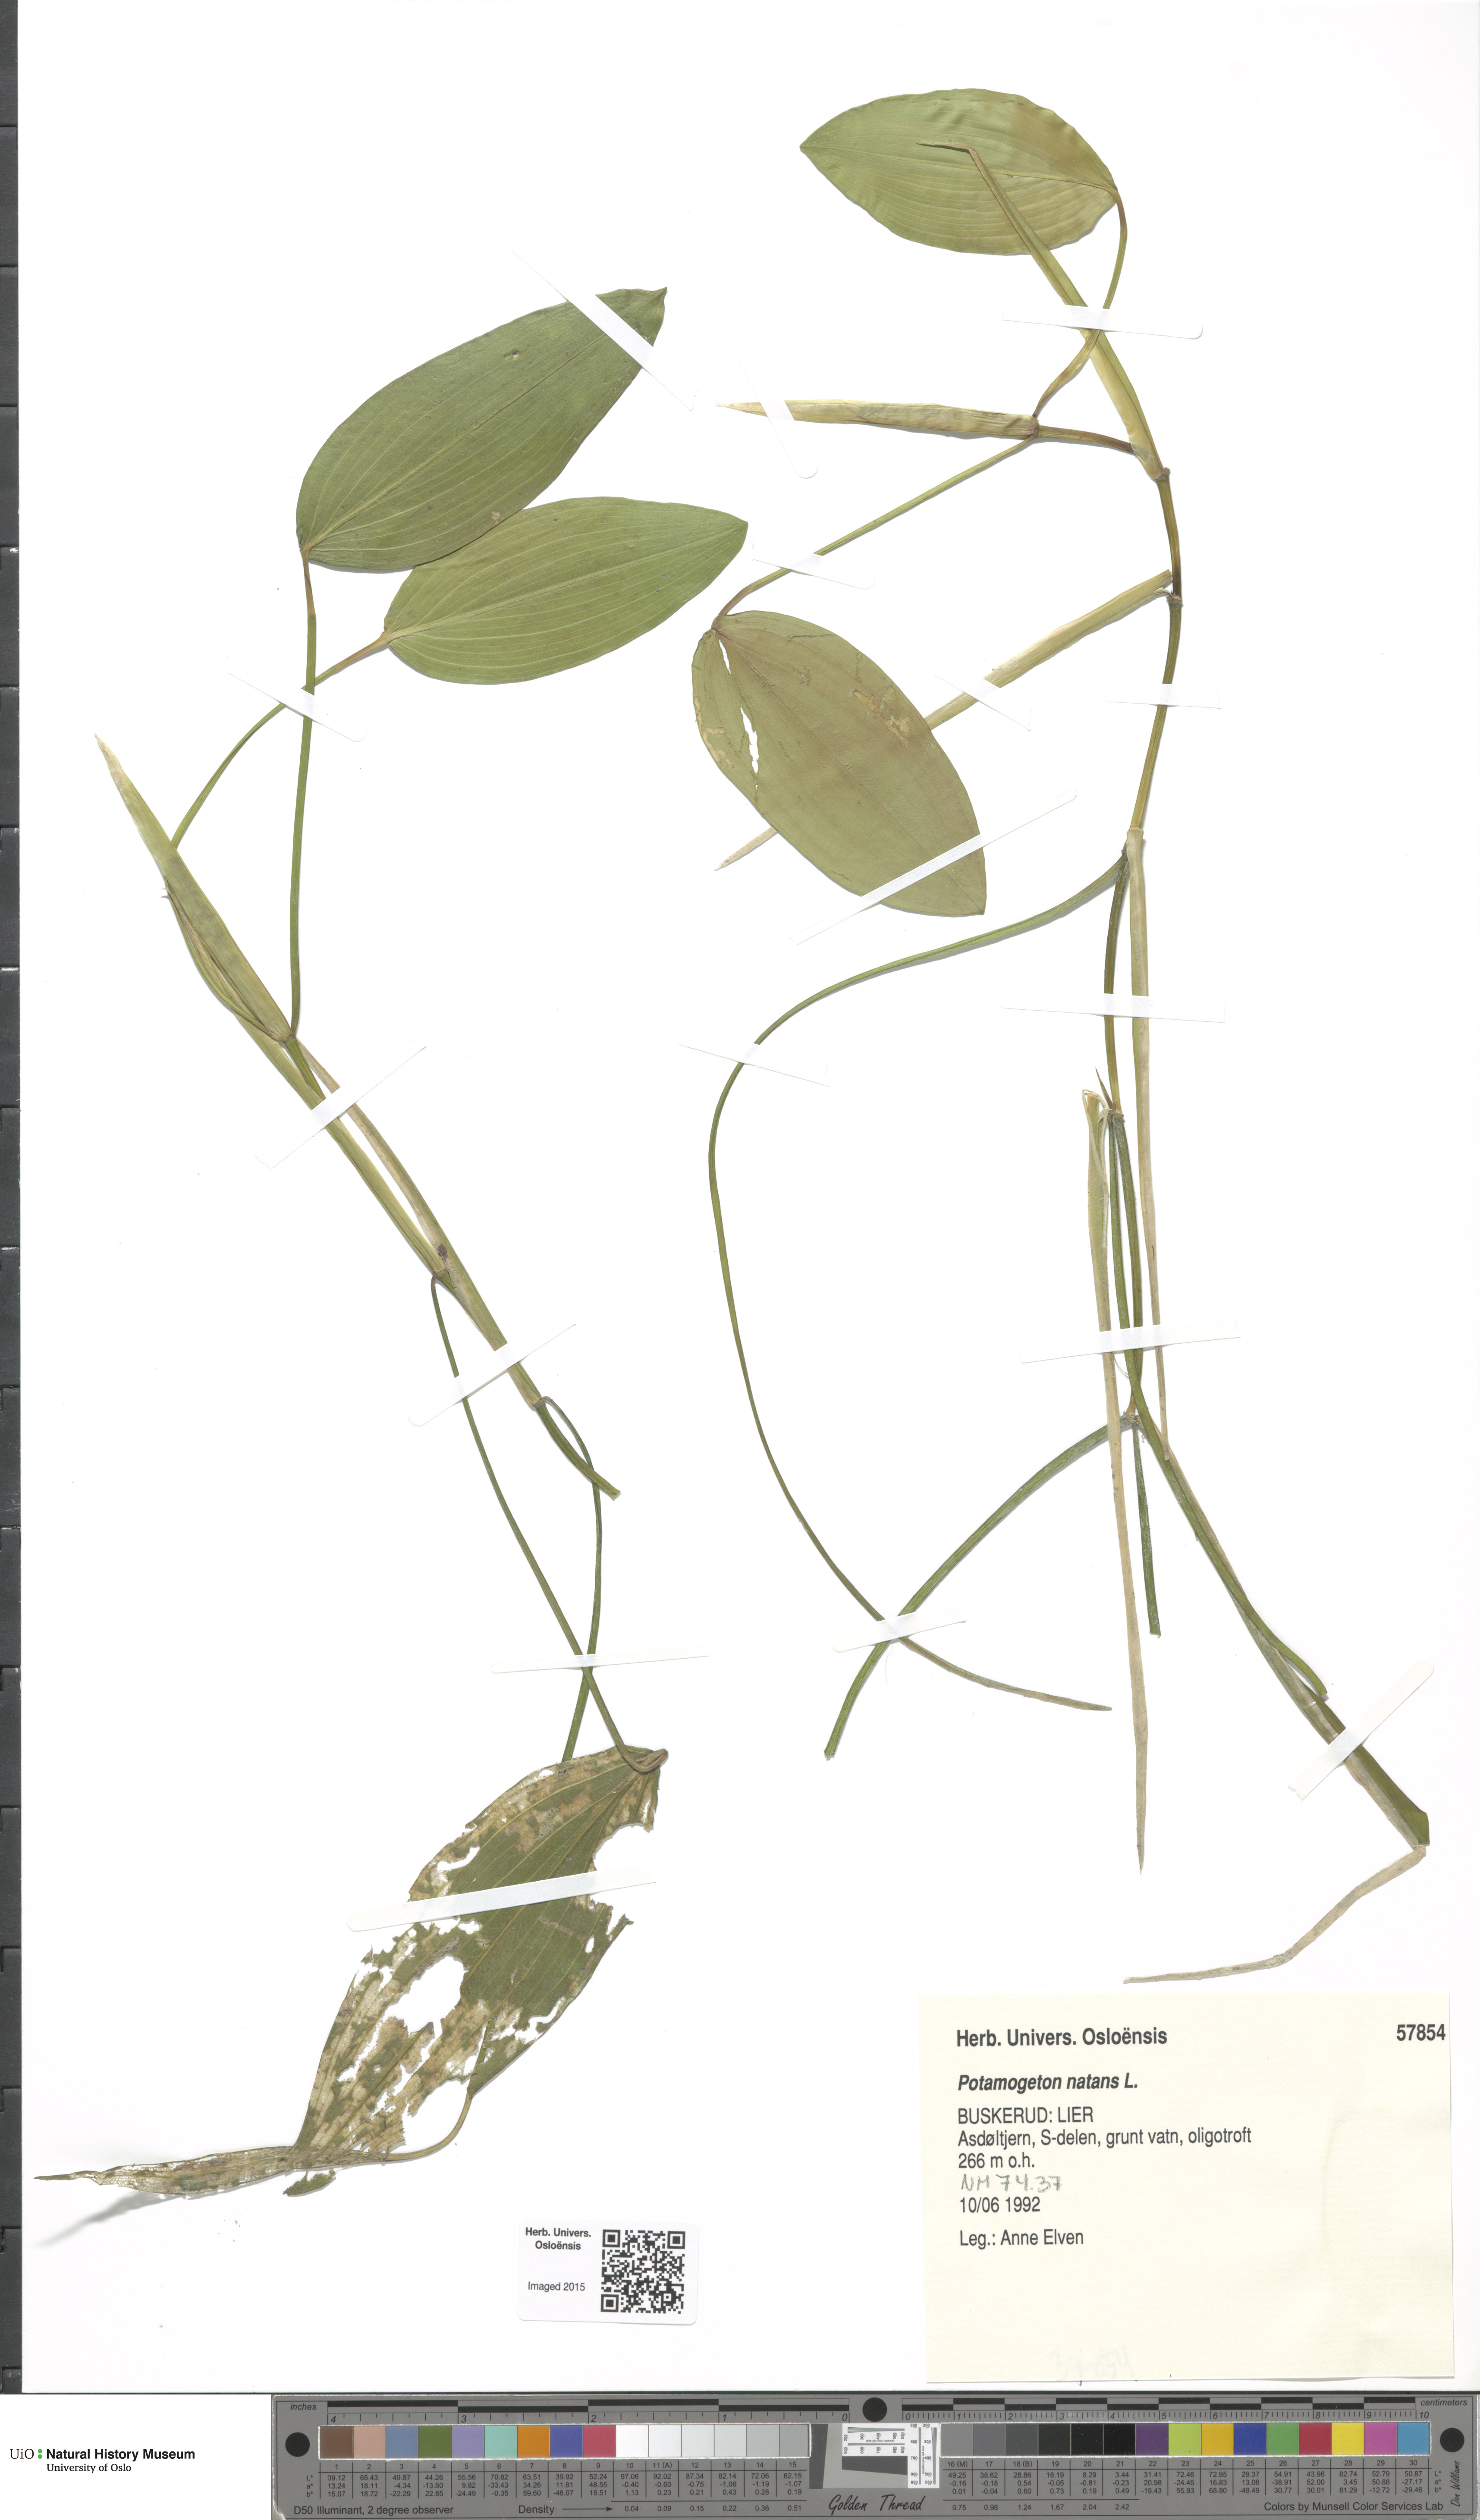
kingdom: Plantae
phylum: Tracheophyta
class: Liliopsida
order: Alismatales
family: Potamogetonaceae
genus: Potamogeton
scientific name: Potamogeton natans
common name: Broad-leaved pondweed
